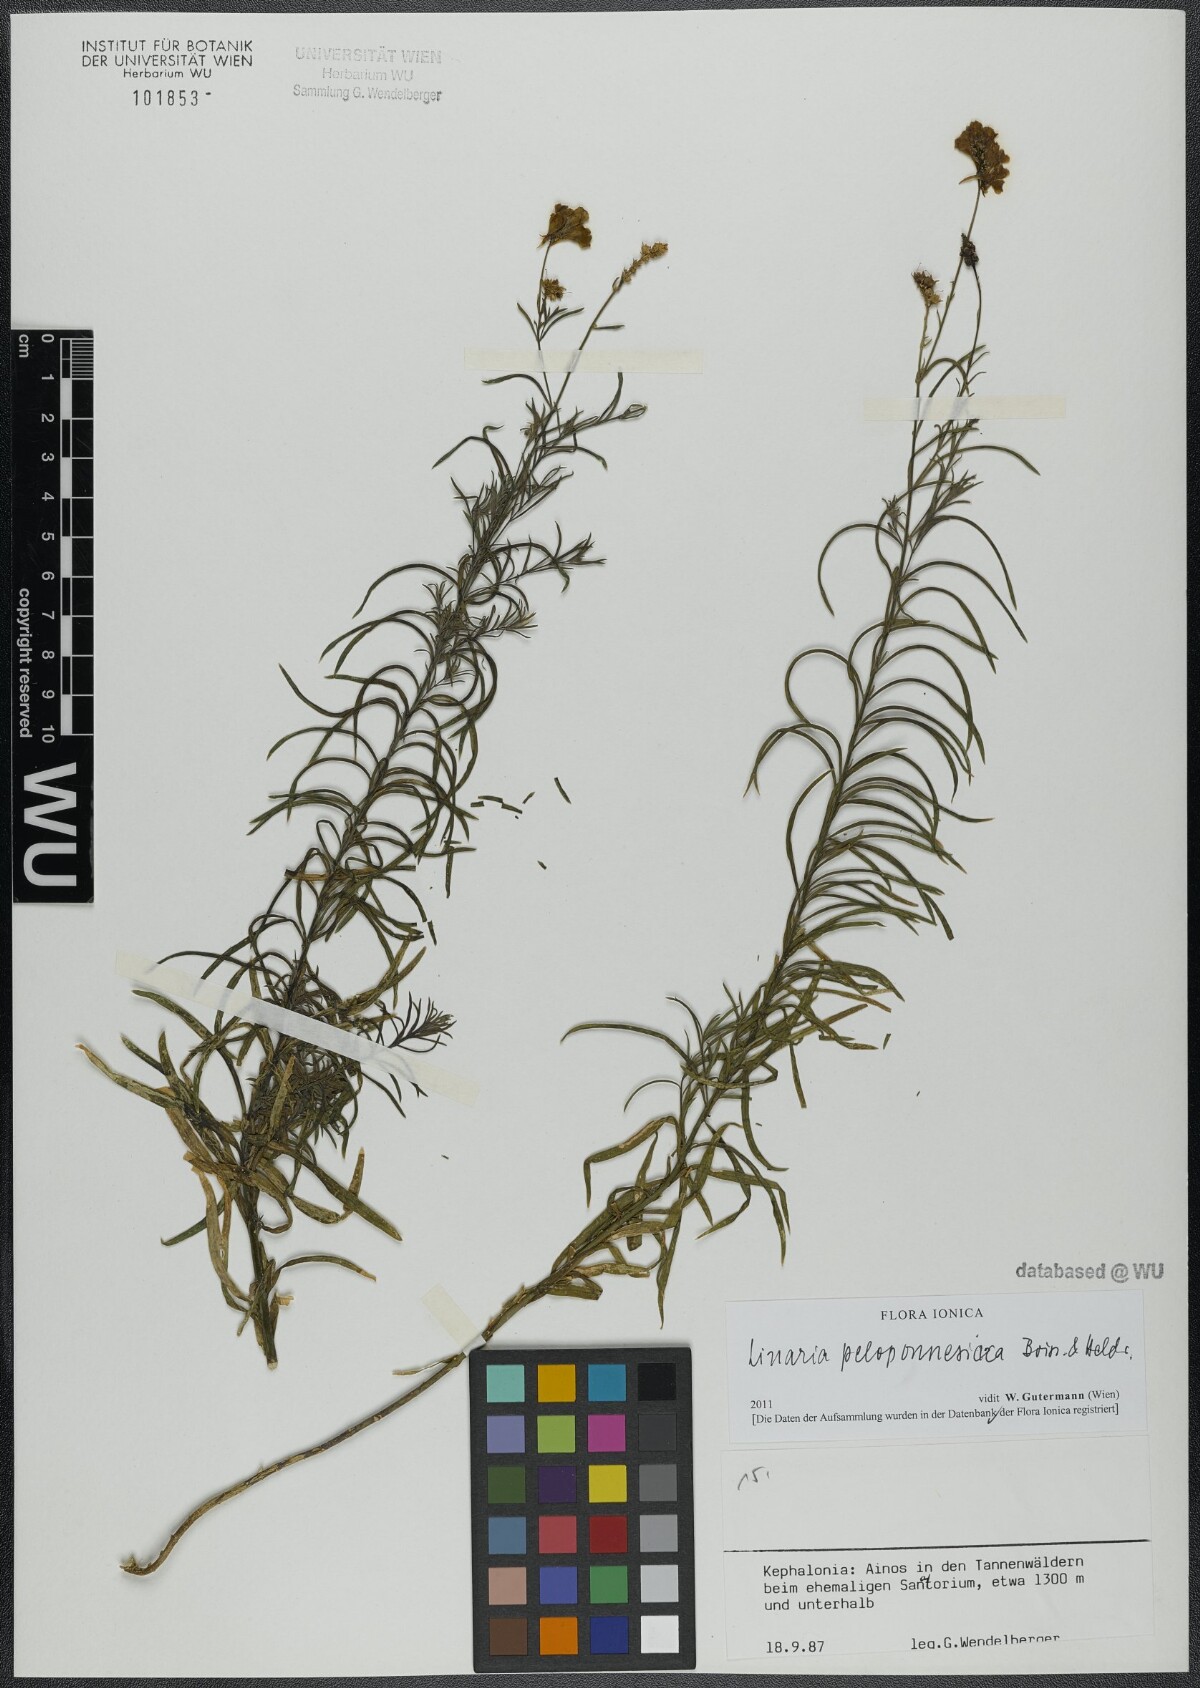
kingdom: Plantae
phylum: Tracheophyta
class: Magnoliopsida
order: Lamiales
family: Plantaginaceae
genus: Linaria
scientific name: Linaria peloponnesiaca
